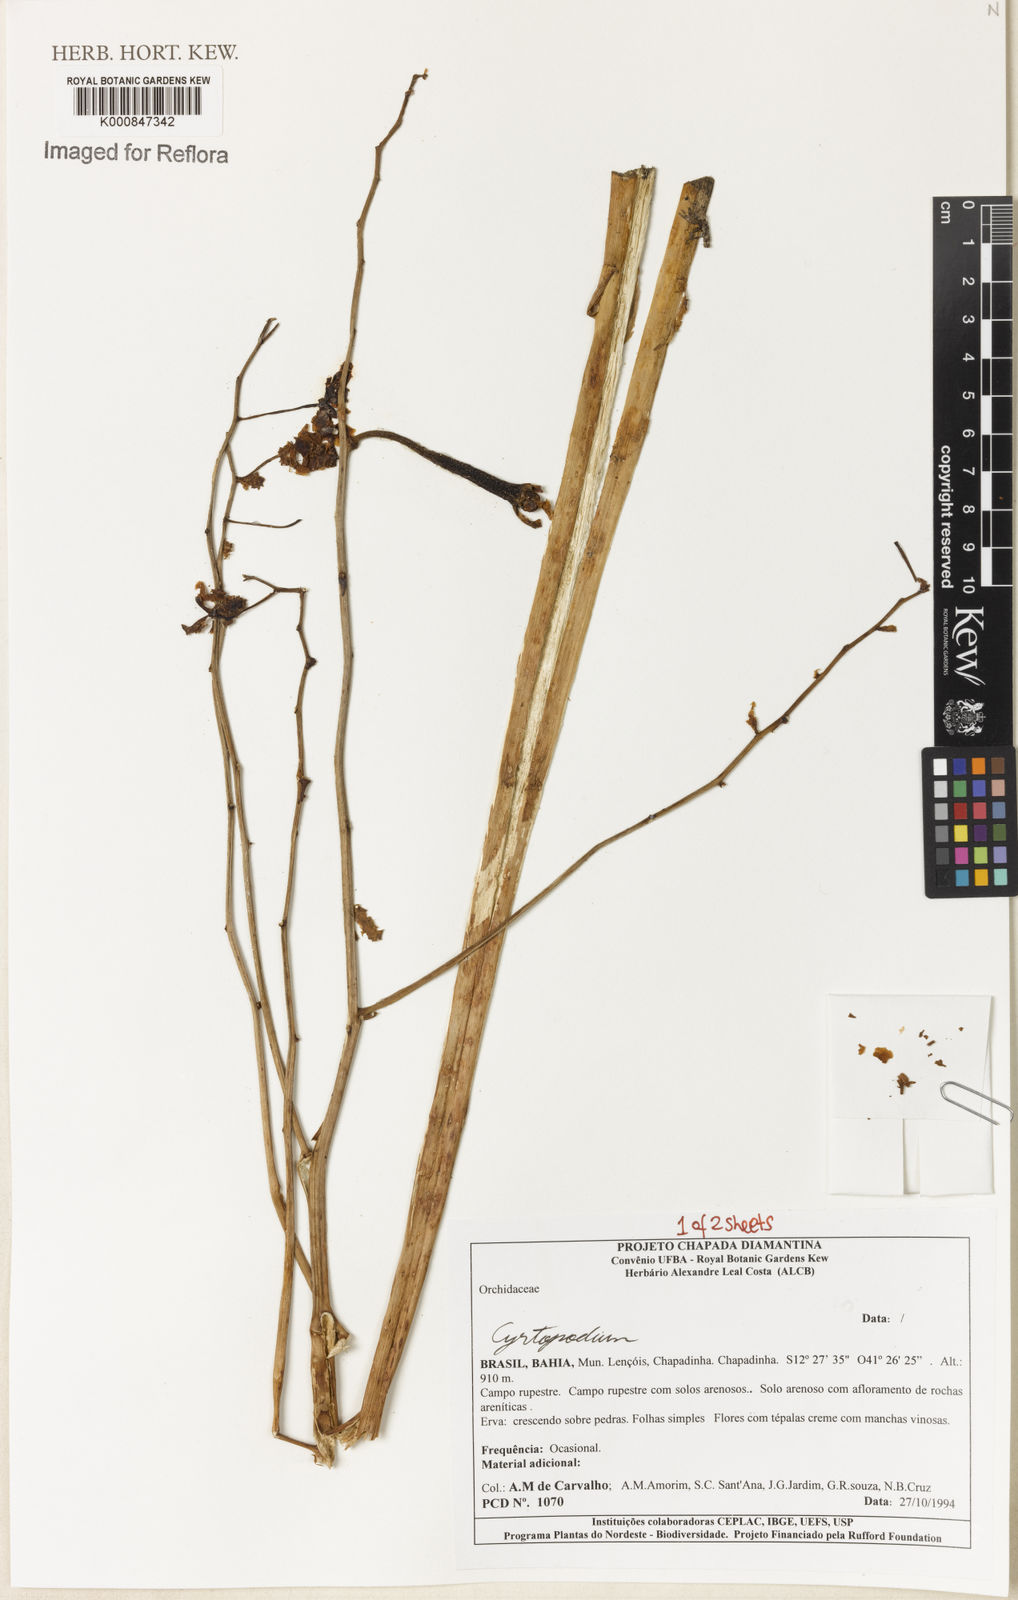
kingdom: Plantae
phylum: Tracheophyta
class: Liliopsida
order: Asparagales
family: Orchidaceae
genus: Cyrtopodium
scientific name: Cyrtopodium
